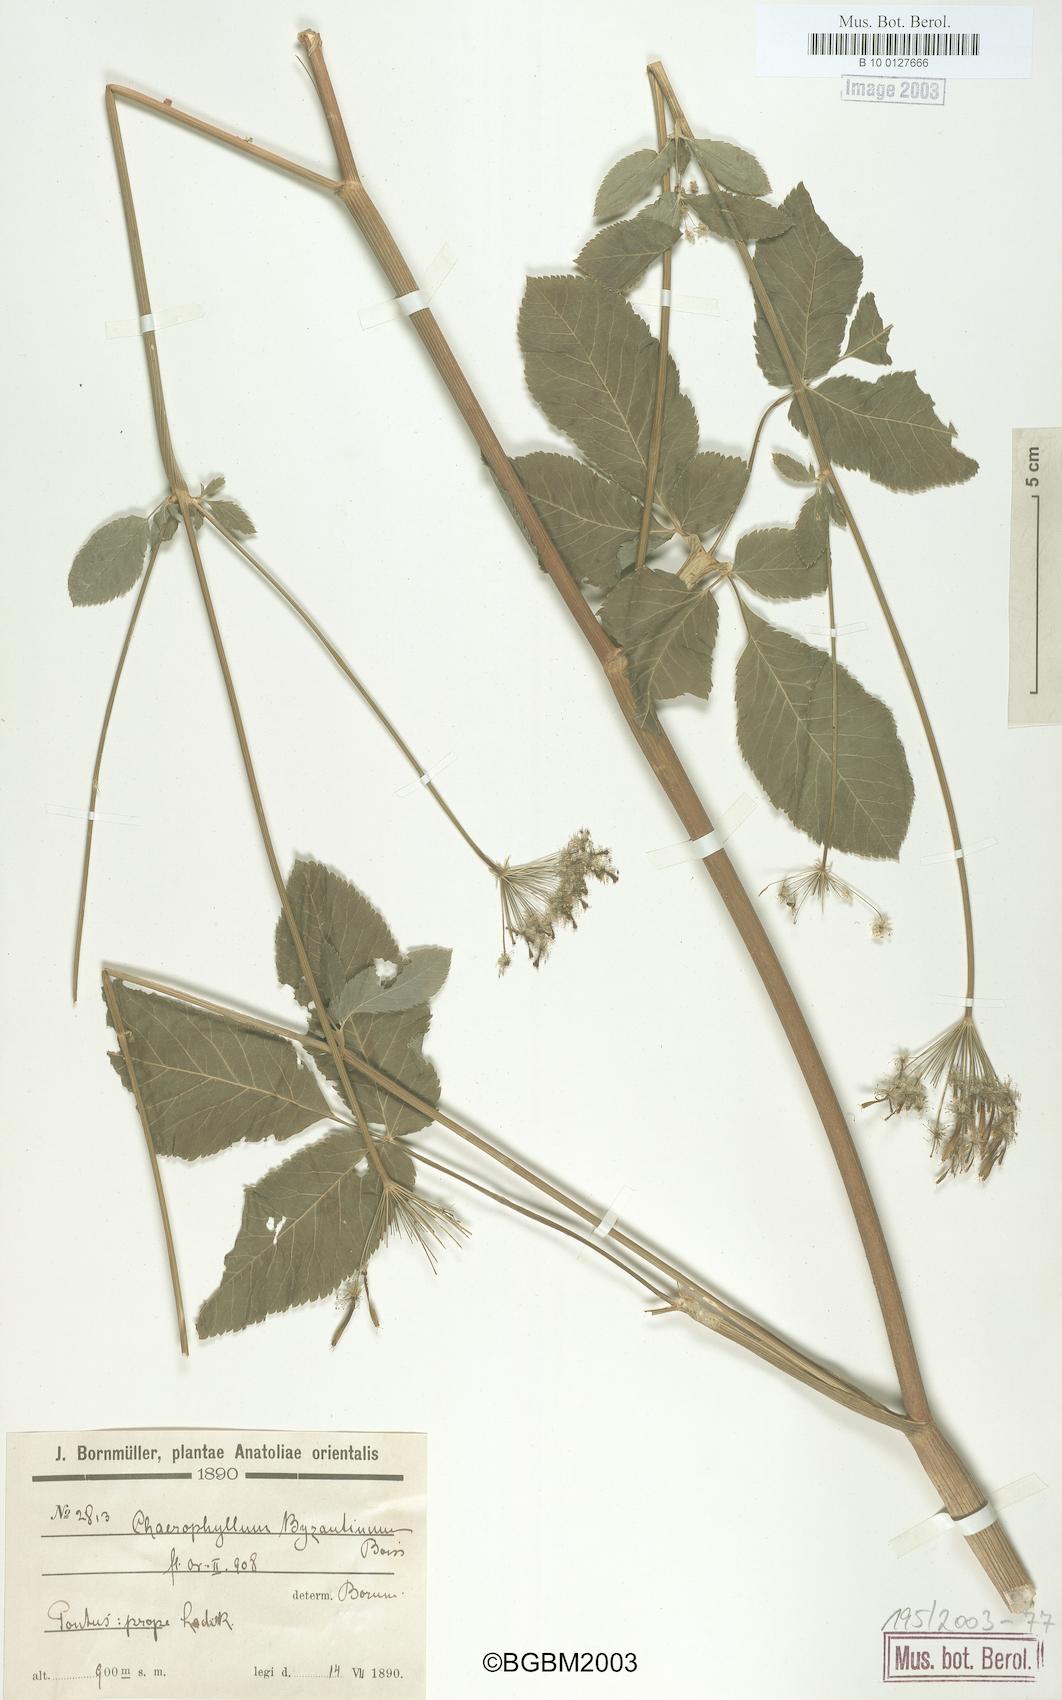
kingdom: Plantae
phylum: Tracheophyta
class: Magnoliopsida
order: Apiales
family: Apiaceae
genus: Chaerophyllum
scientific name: Chaerophyllum byzantinum
